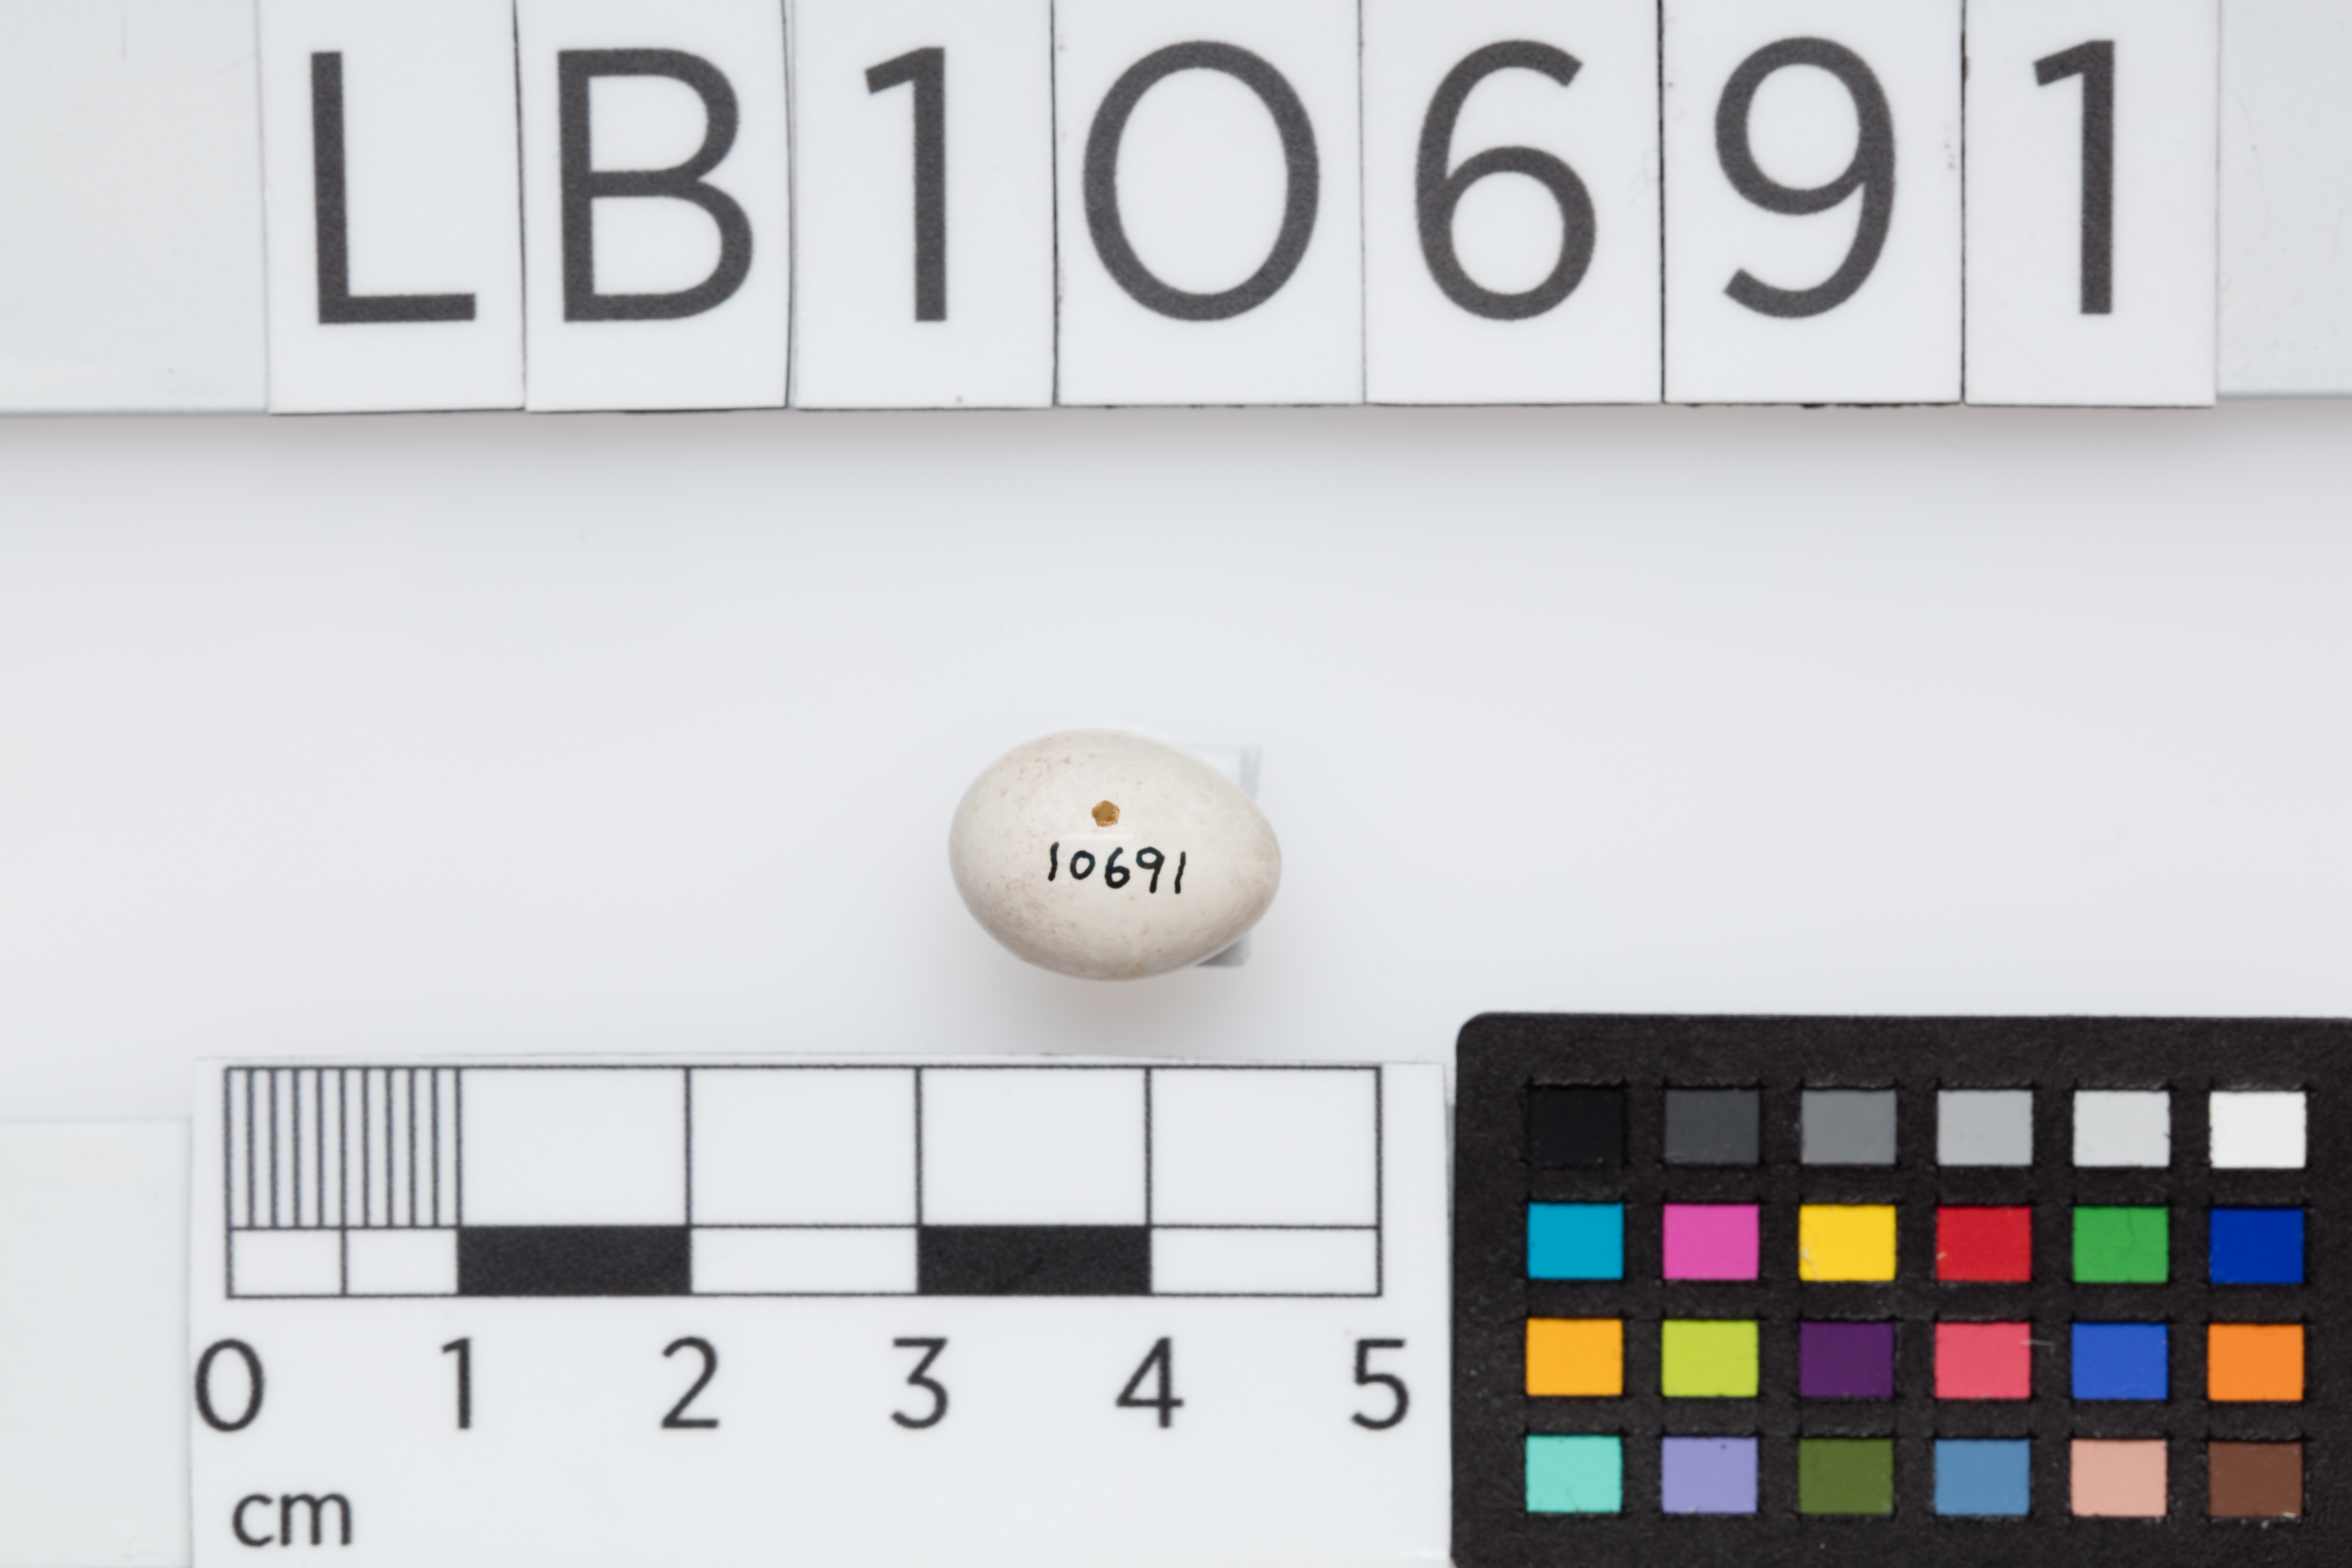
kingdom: Animalia
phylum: Chordata
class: Aves
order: Passeriformes
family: Aegithalidae
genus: Aegithalos
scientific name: Aegithalos caudatus
